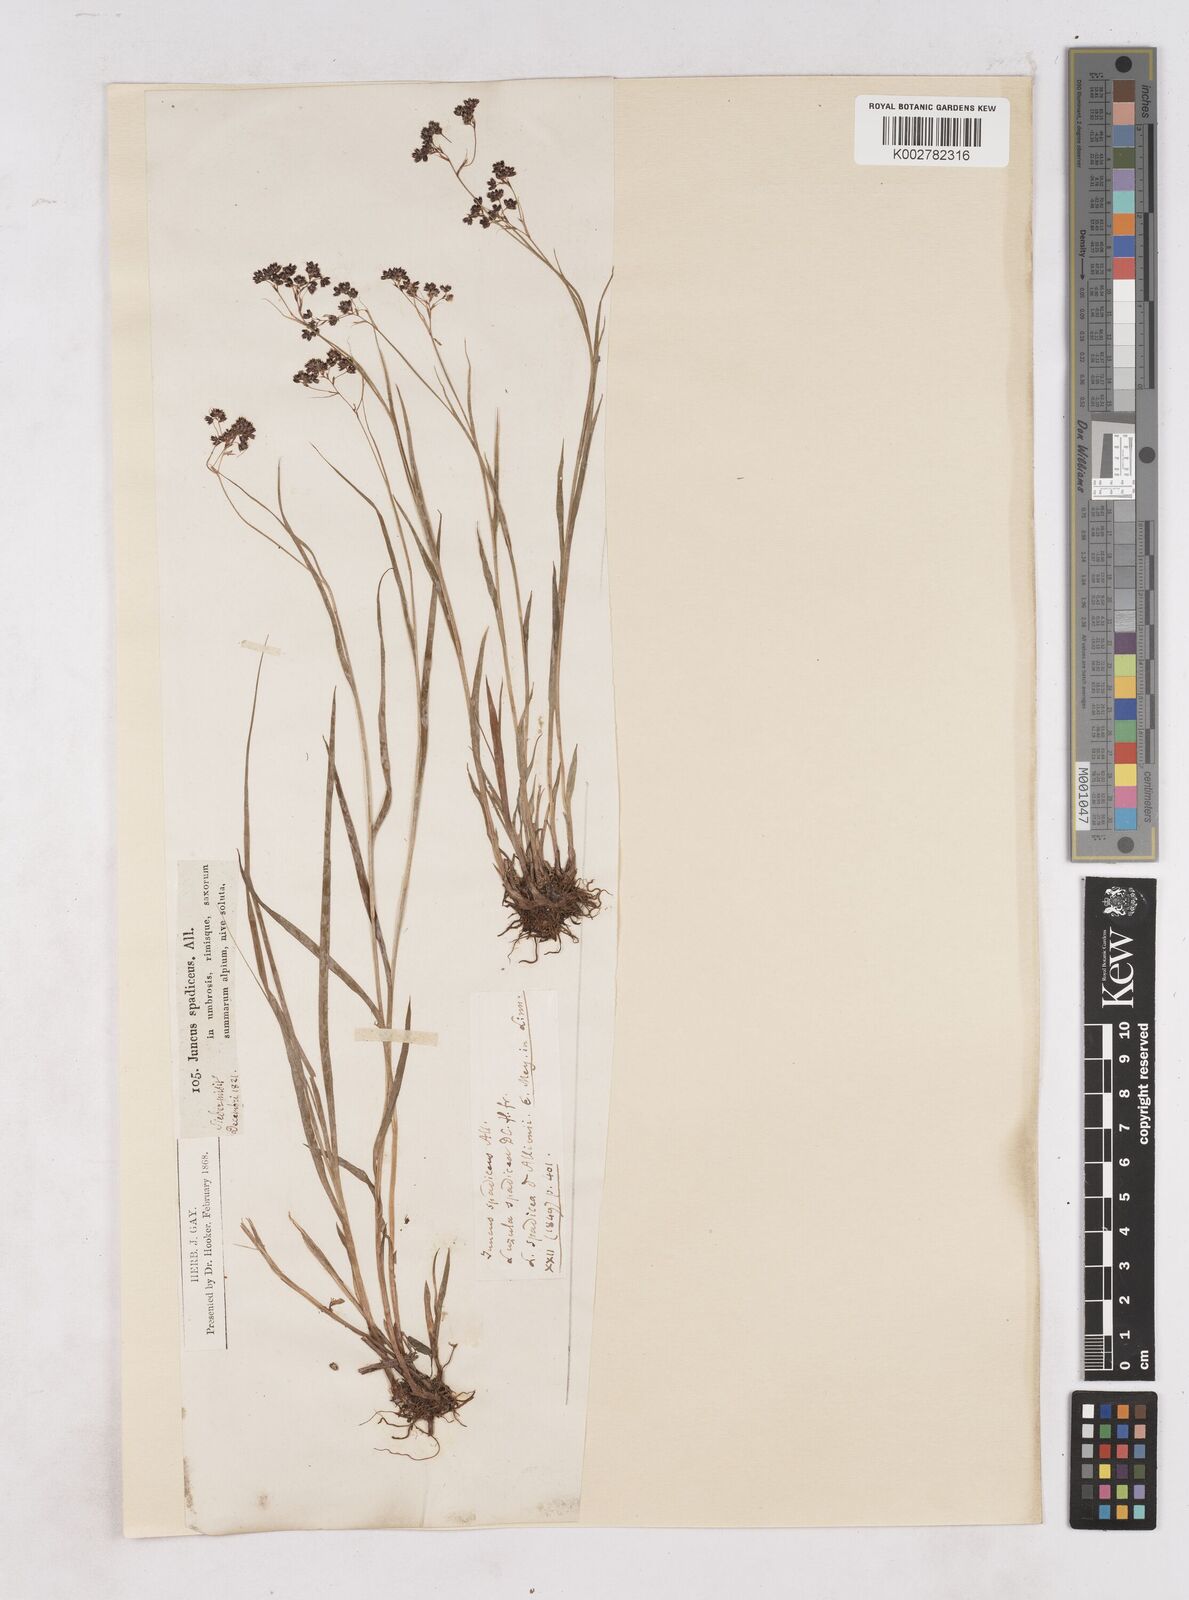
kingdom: Plantae
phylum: Tracheophyta
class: Liliopsida
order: Poales
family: Juncaceae
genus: Luzula
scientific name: Luzula alpinopilosa
